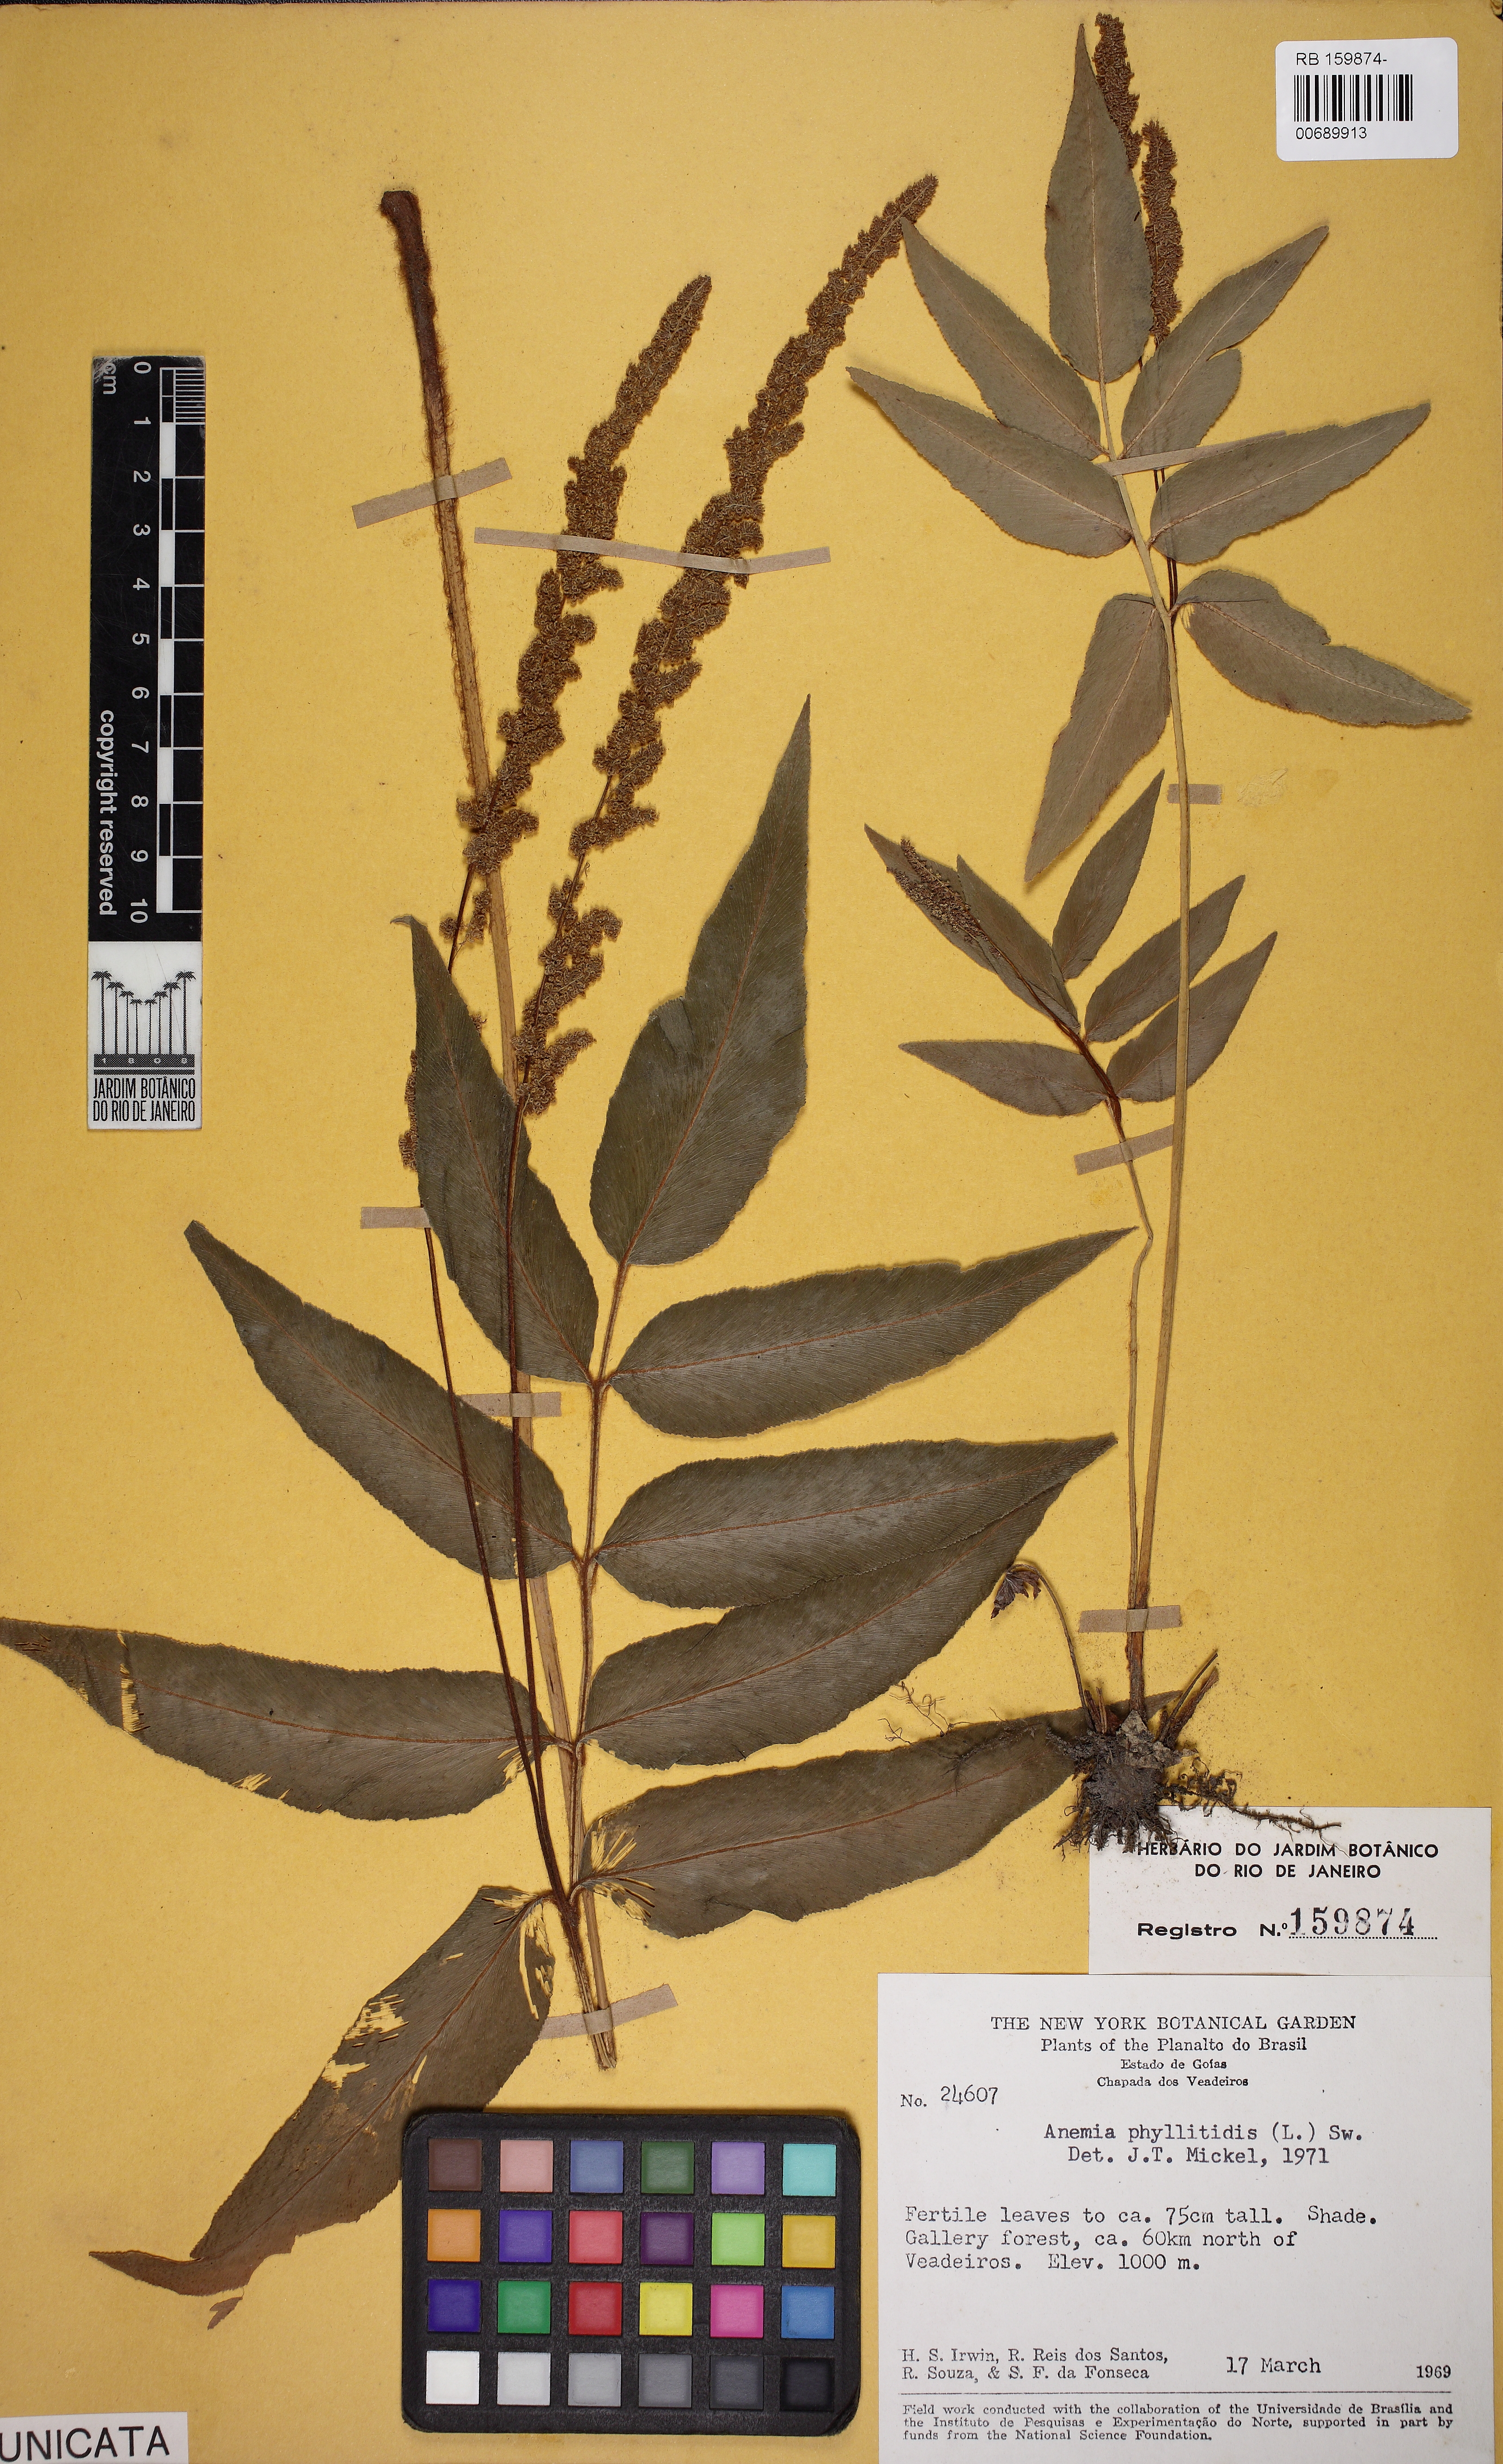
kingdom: Plantae
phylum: Tracheophyta
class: Polypodiopsida
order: Schizaeales
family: Anemiaceae
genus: Anemia
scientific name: Anemia phyllitidis
